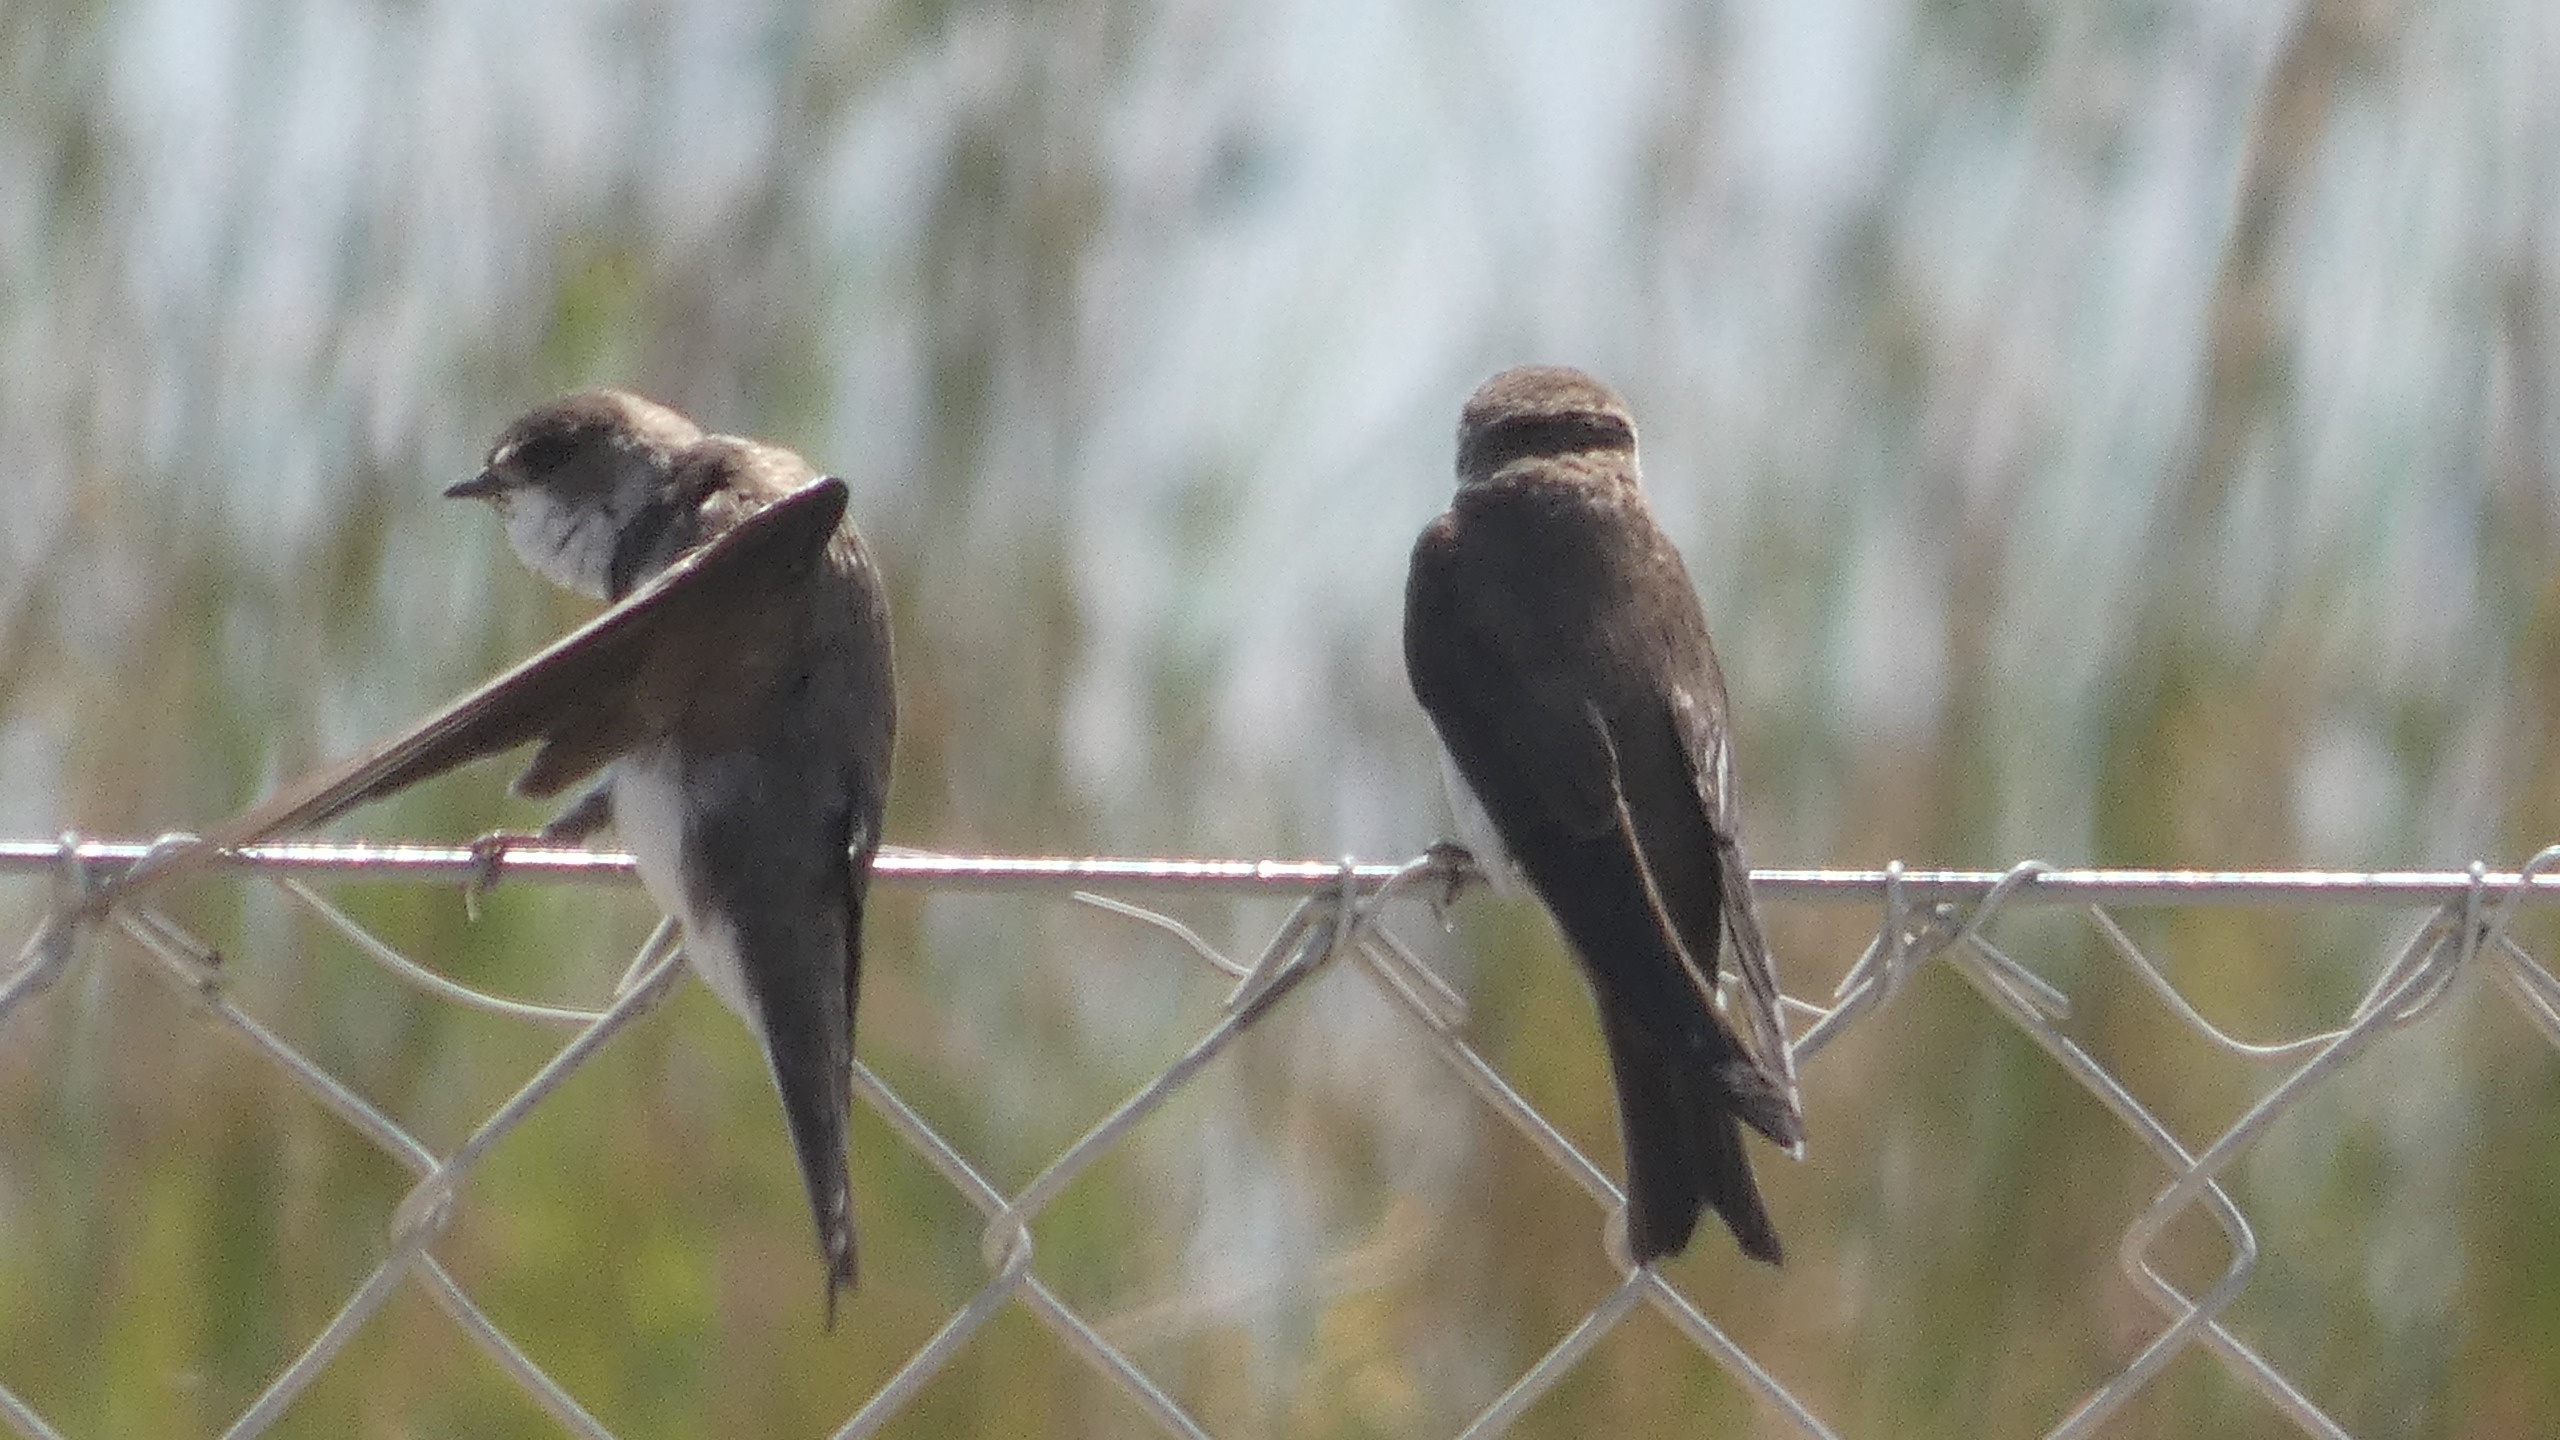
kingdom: Animalia
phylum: Chordata
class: Aves
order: Passeriformes
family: Hirundinidae
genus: Riparia
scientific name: Riparia riparia
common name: Digesvale
